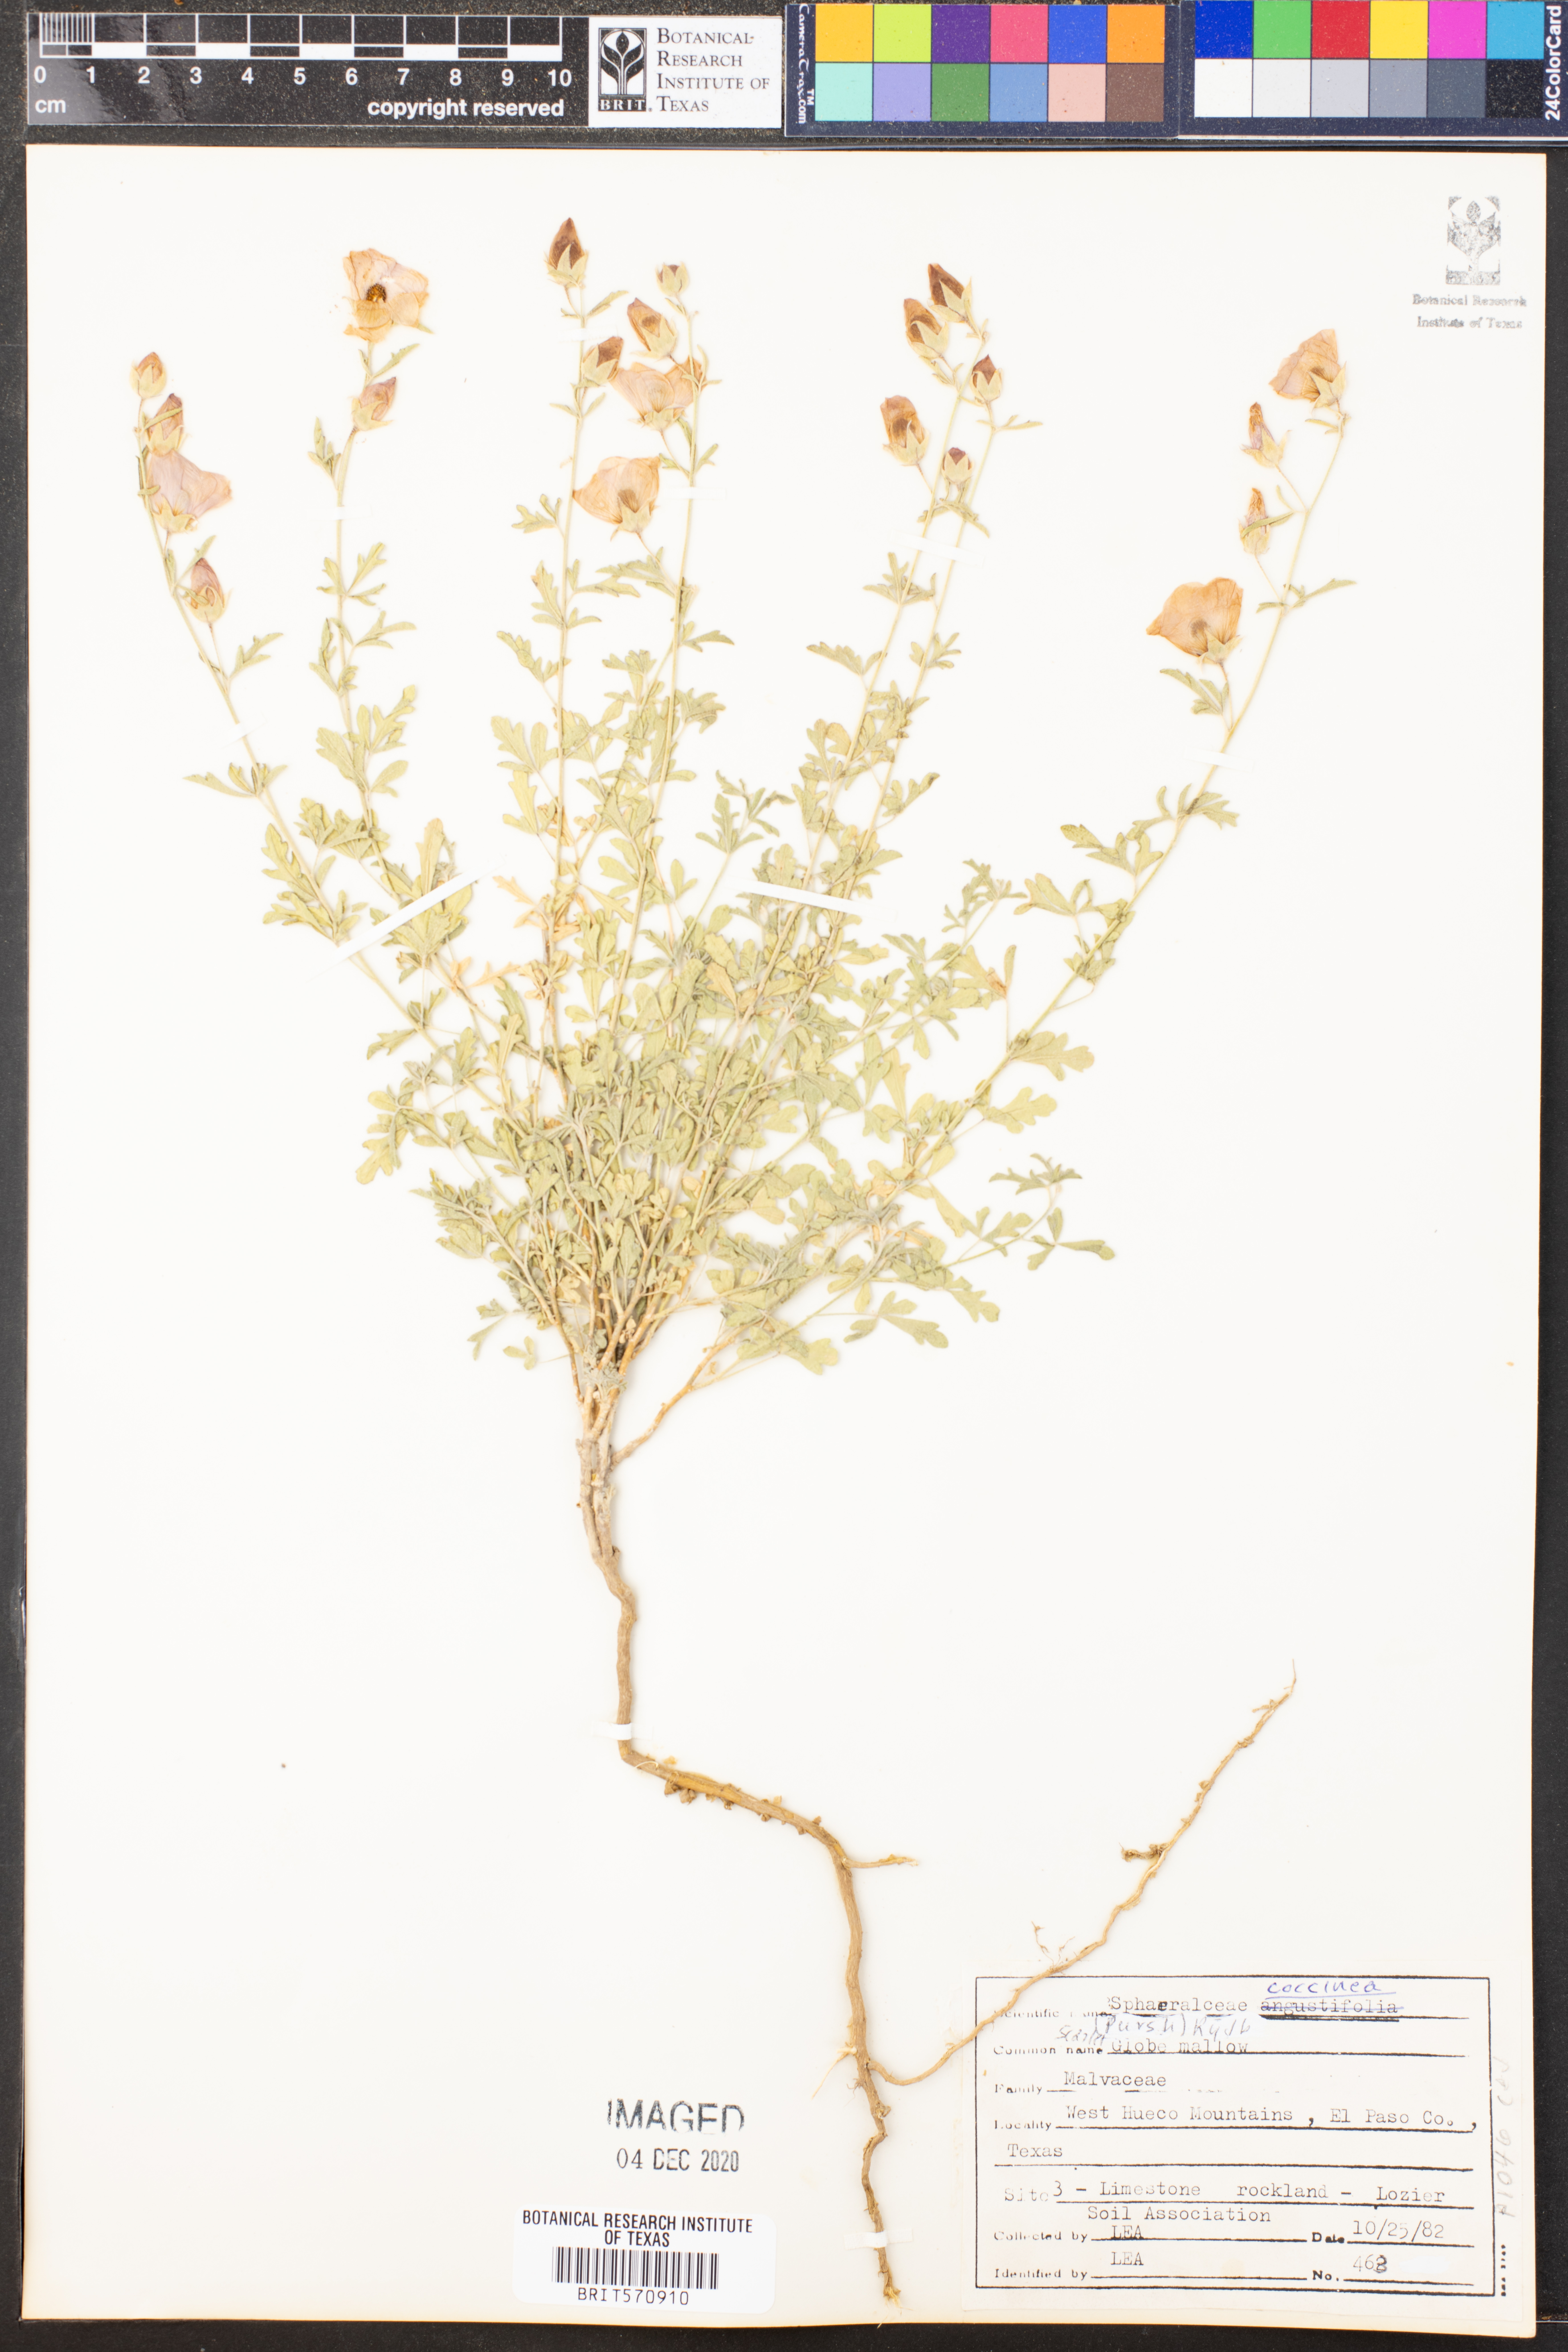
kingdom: Plantae
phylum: Tracheophyta
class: Magnoliopsida
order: Malvales
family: Malvaceae
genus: Sphaeralcea
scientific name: Sphaeralcea coccinea
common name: Moss-rose
